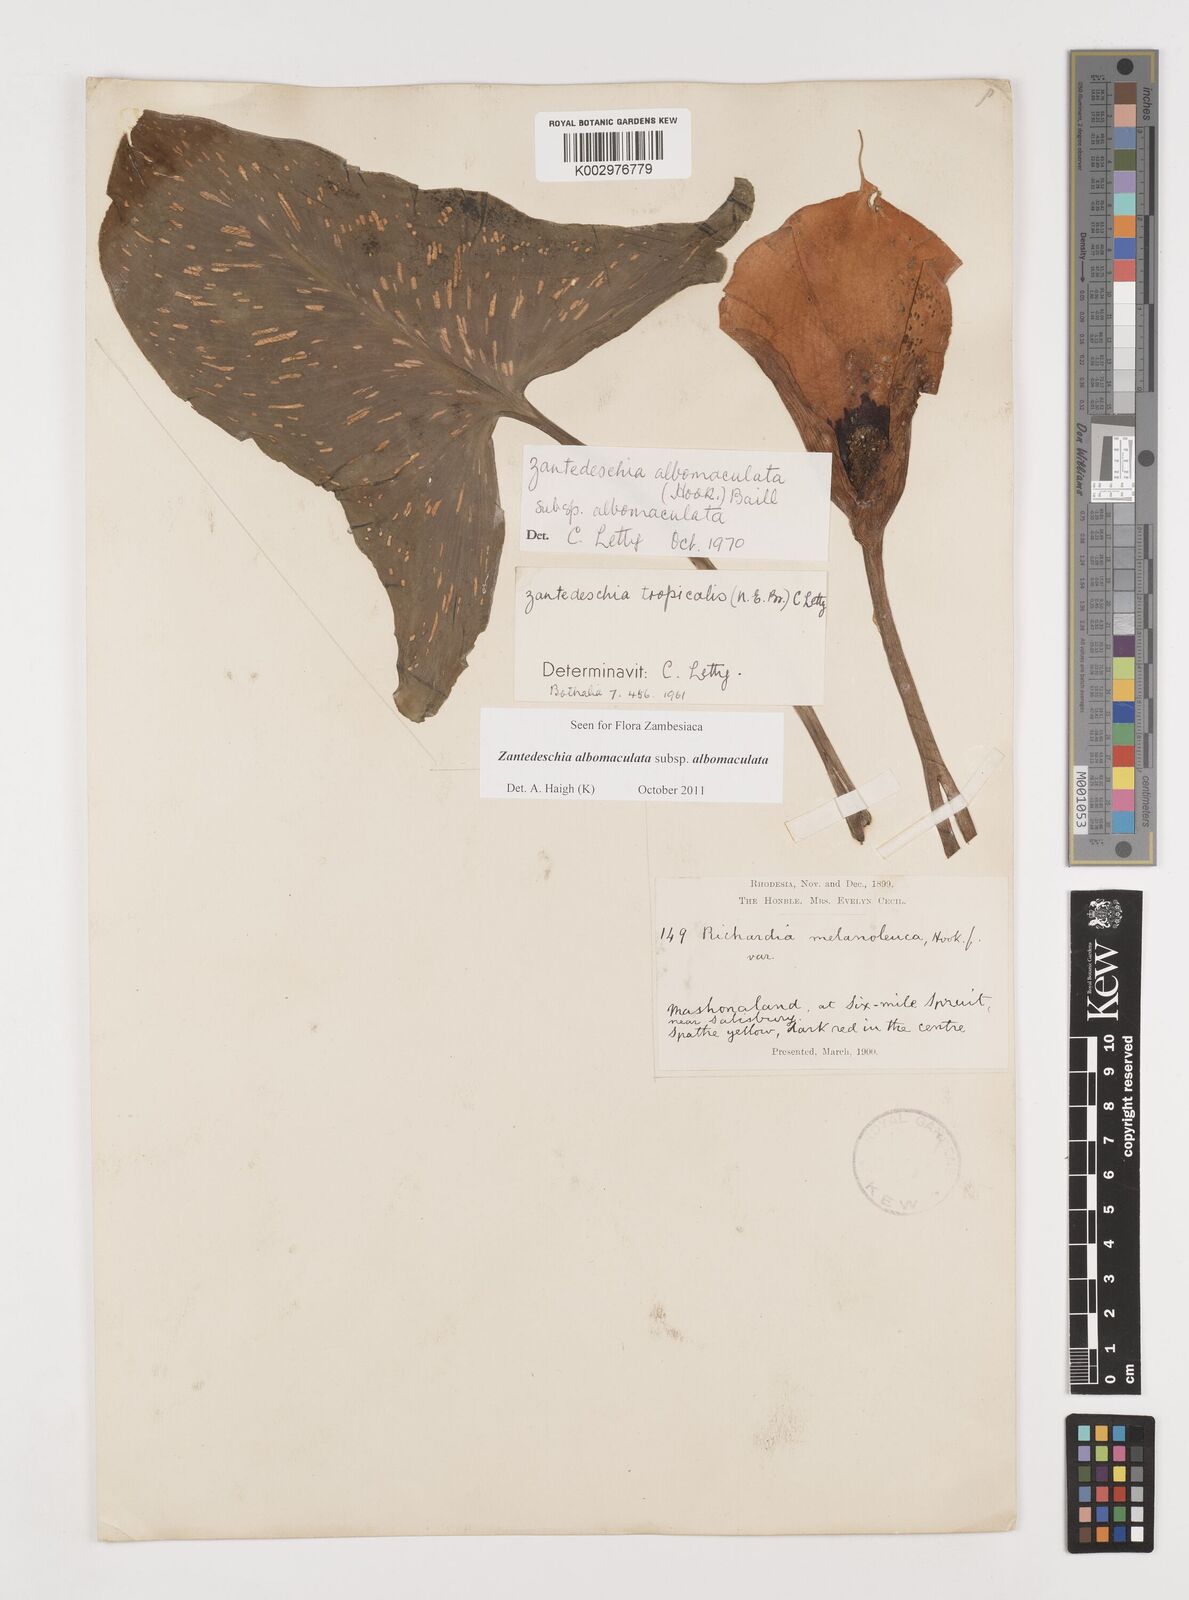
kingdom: Plantae
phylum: Tracheophyta
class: Liliopsida
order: Alismatales
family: Araceae
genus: Zantedeschia
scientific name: Zantedeschia albomaculata
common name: Spotted calla lily
